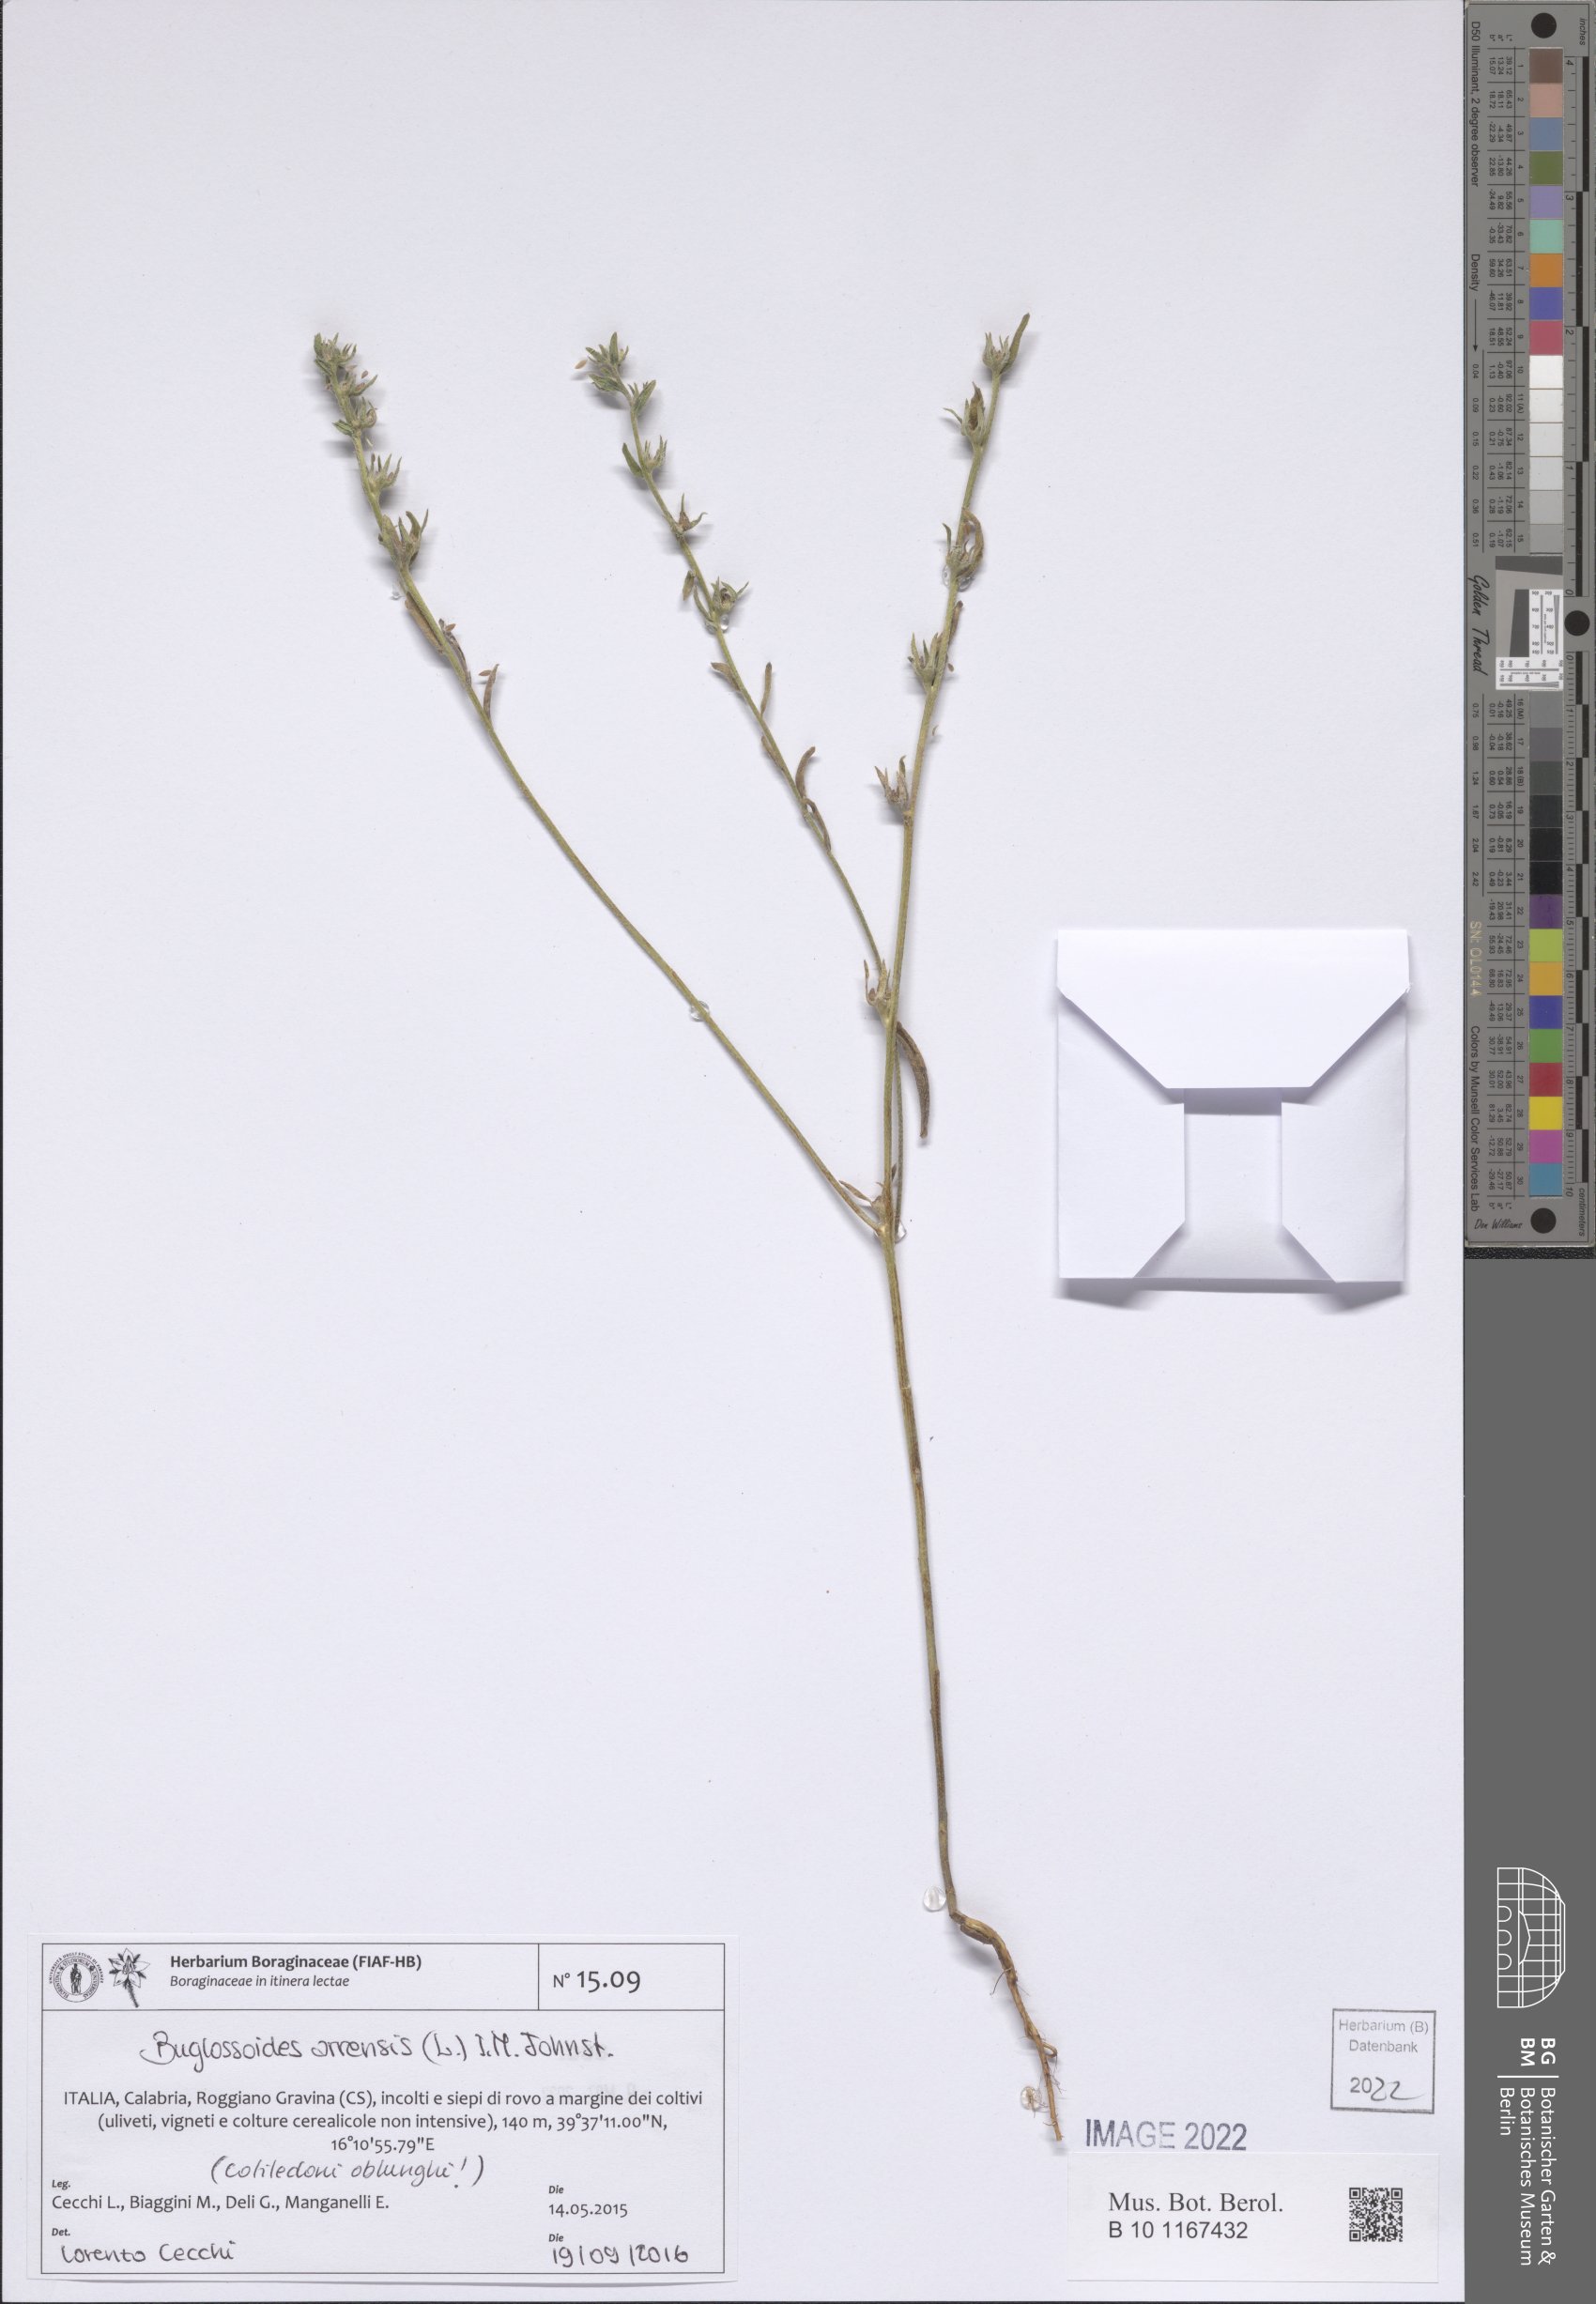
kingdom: Plantae
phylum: Tracheophyta
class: Magnoliopsida
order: Boraginales
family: Boraginaceae
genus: Buglossoides
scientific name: Buglossoides arvensis
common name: Corn gromwell
